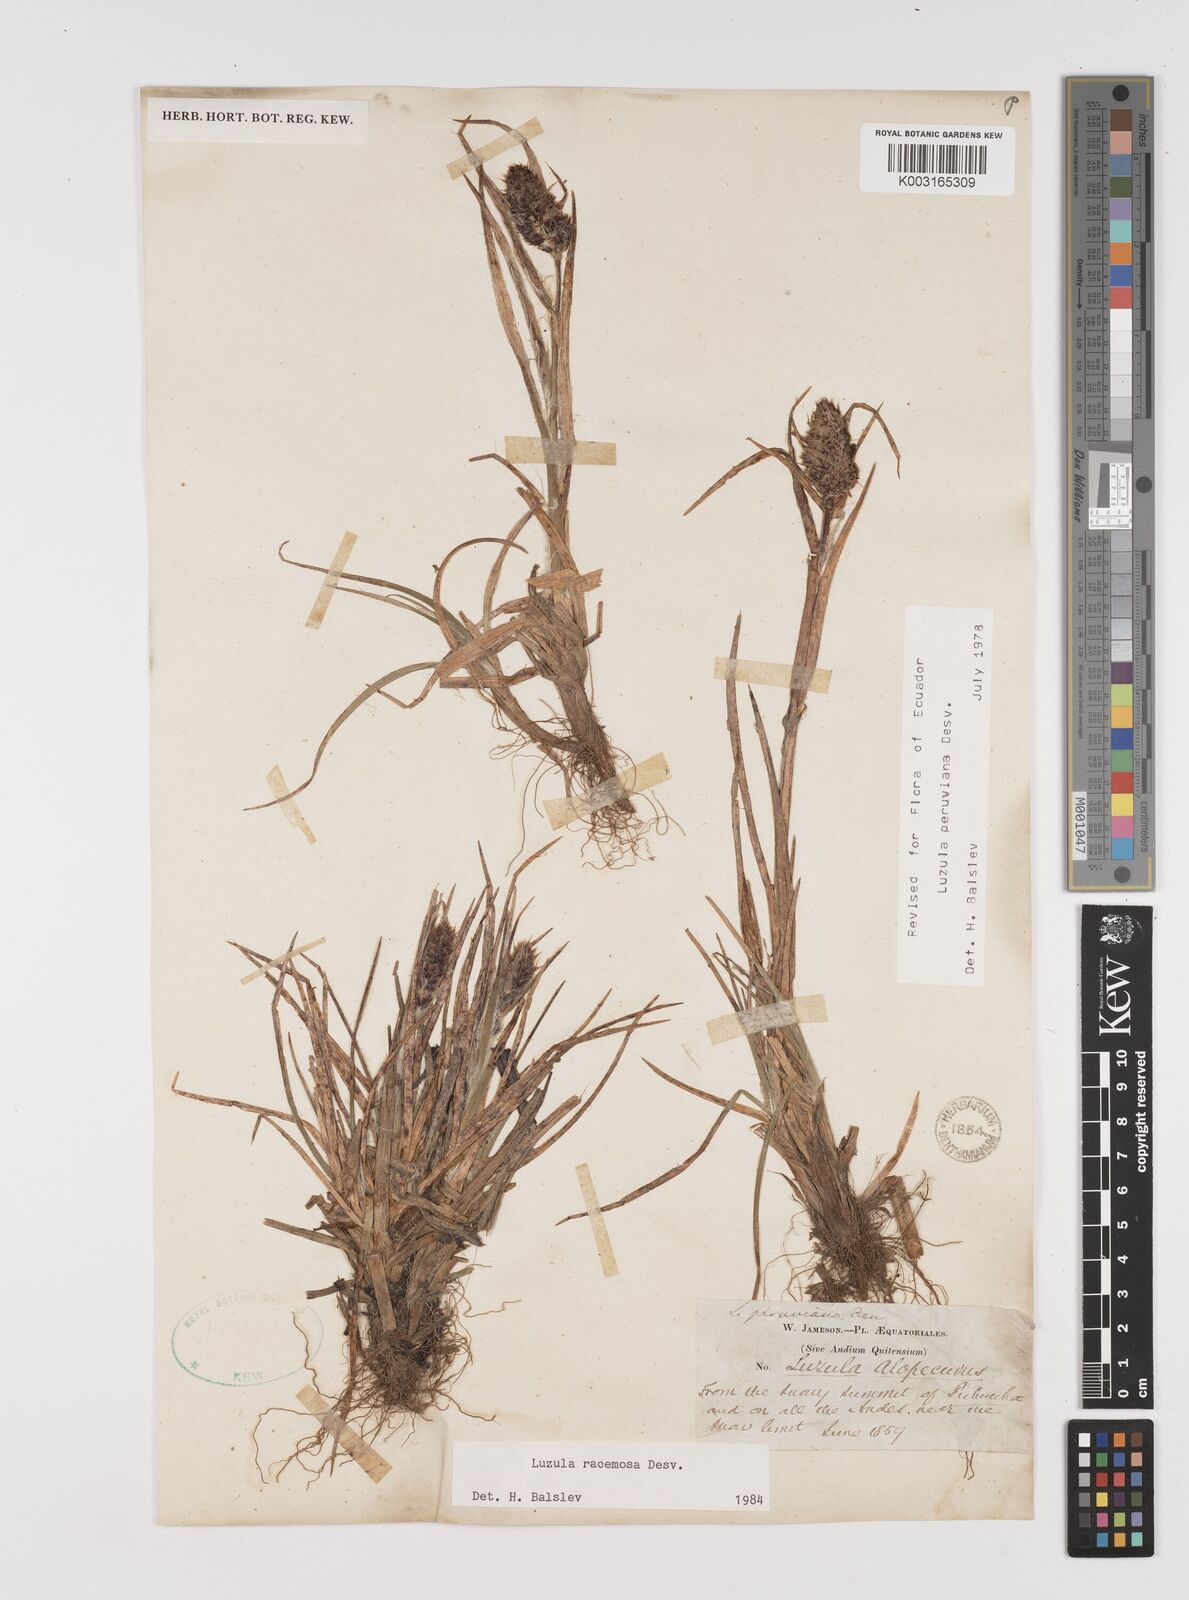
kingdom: Plantae
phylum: Tracheophyta
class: Liliopsida
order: Poales
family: Juncaceae
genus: Luzula
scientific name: Luzula racemosa
